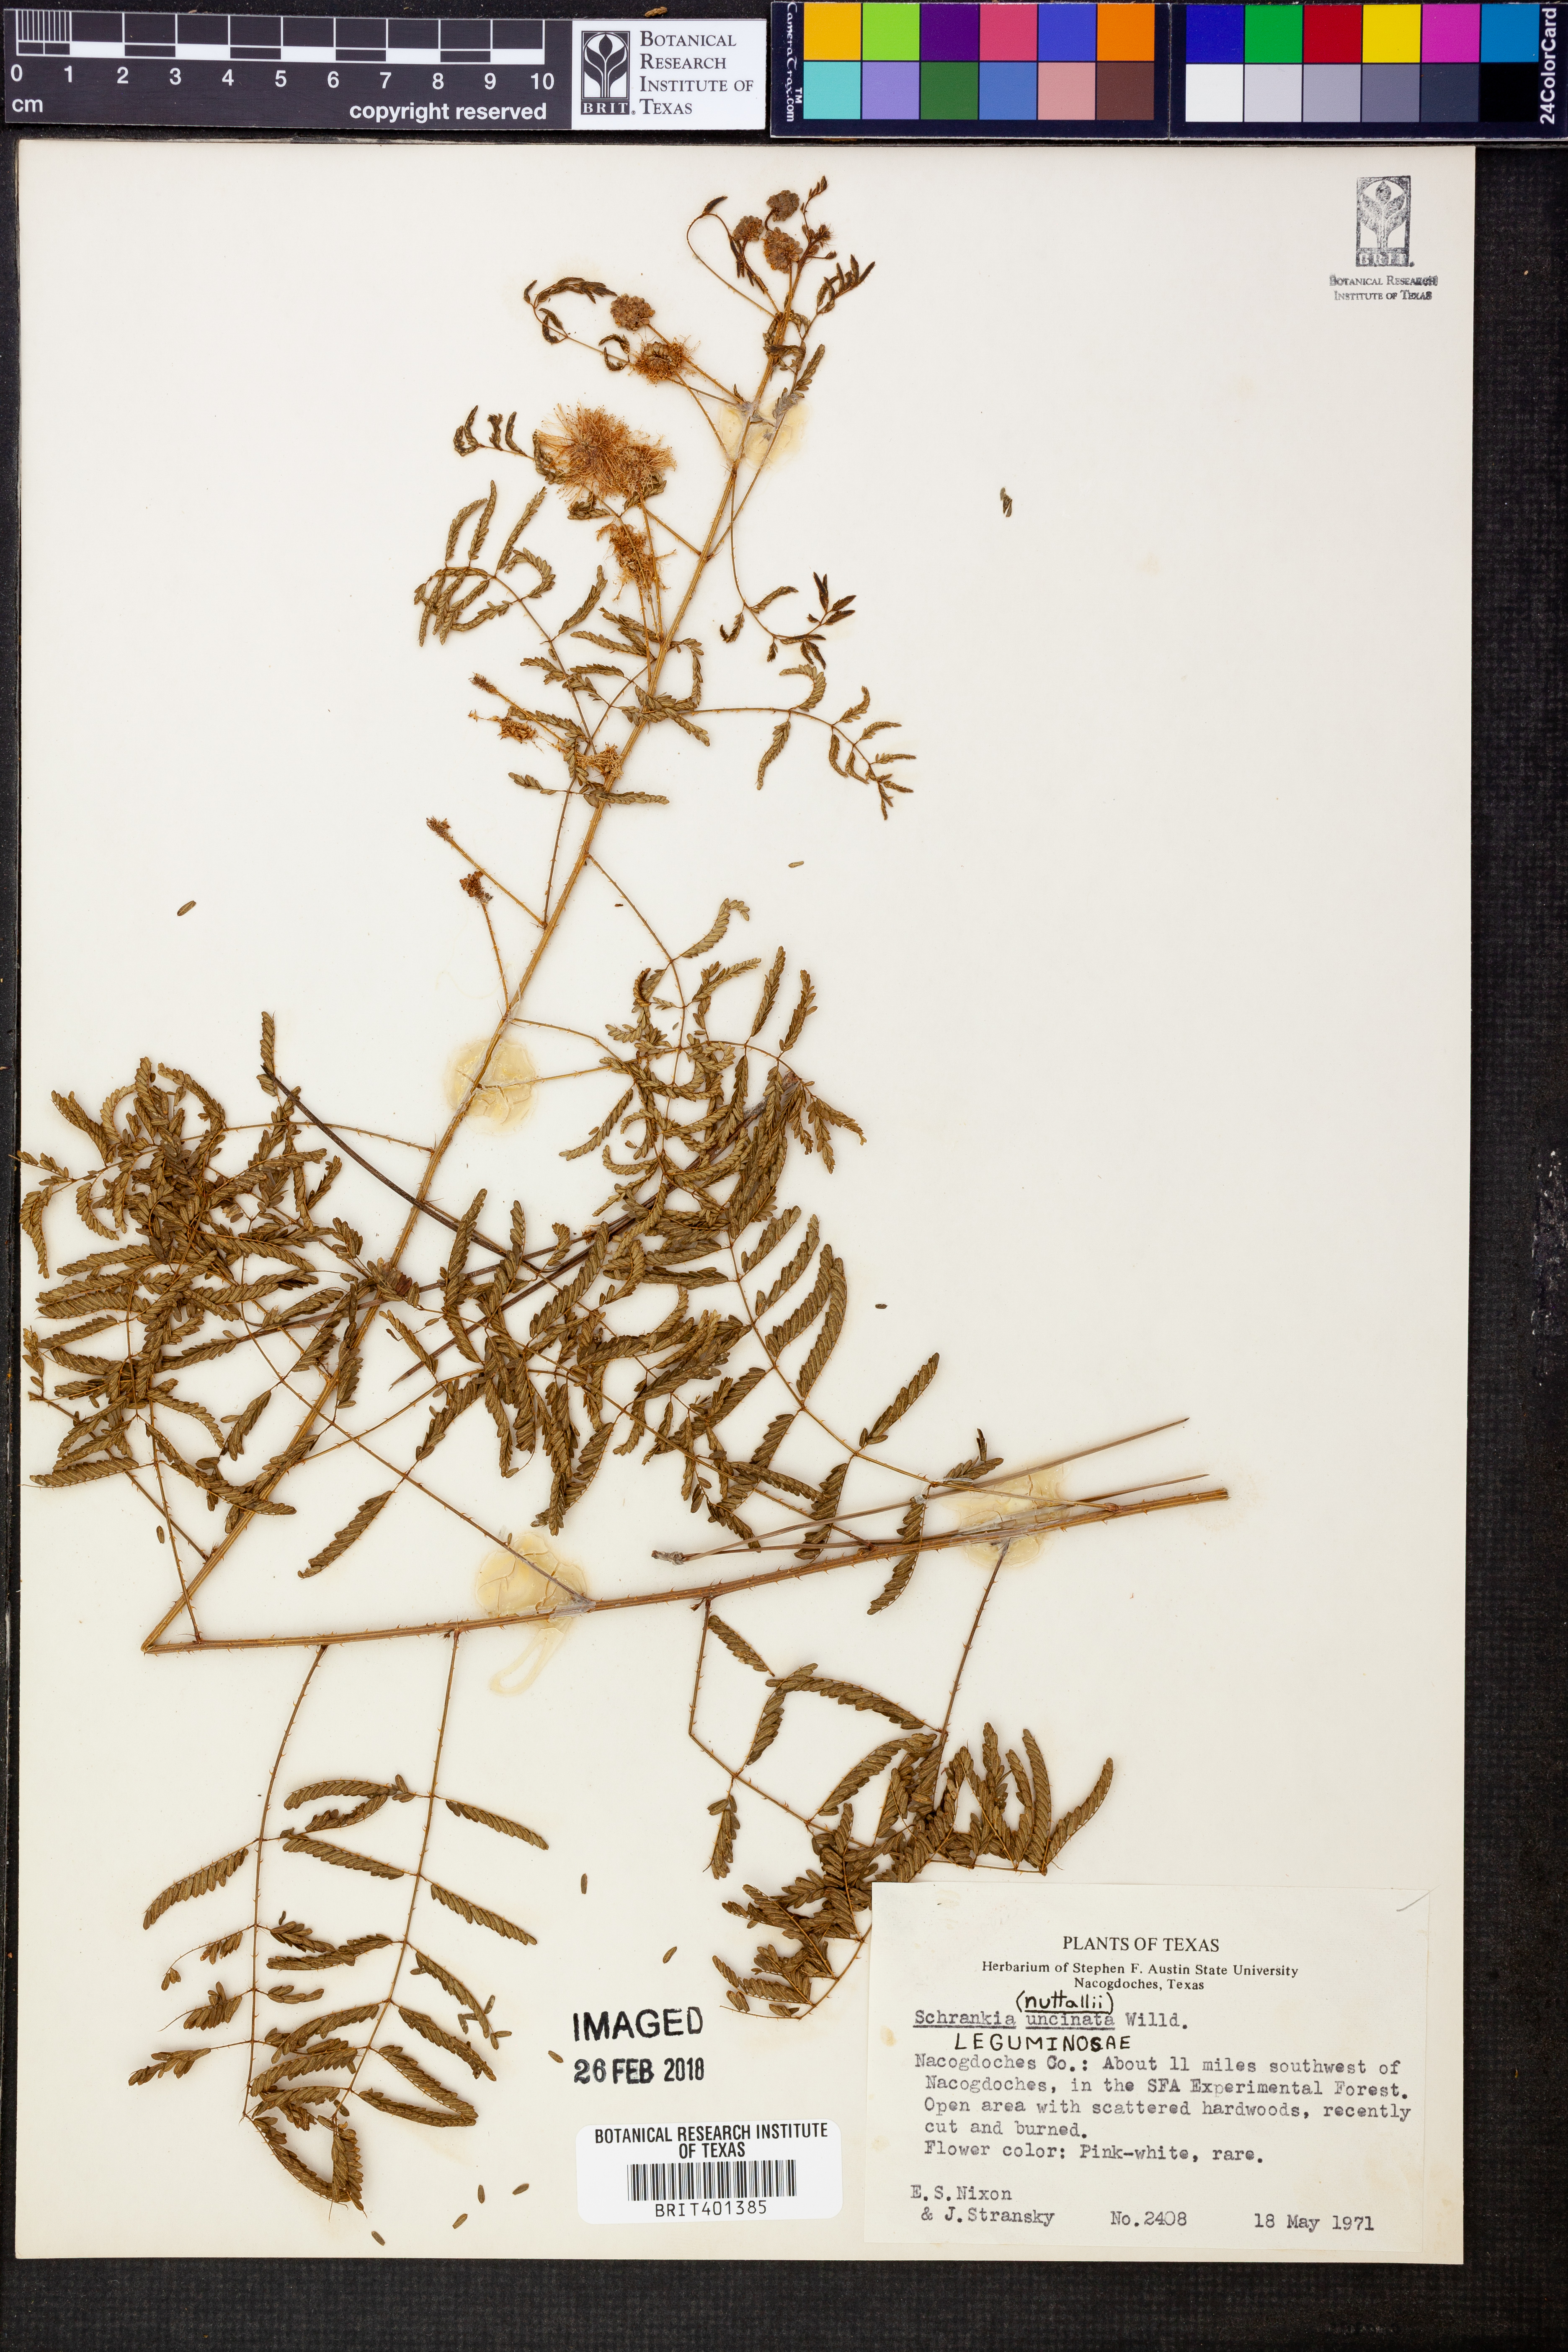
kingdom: Plantae
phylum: Tracheophyta
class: Magnoliopsida
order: Fabales
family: Fabaceae
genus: Mimosa
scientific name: Mimosa quadrivalvis
